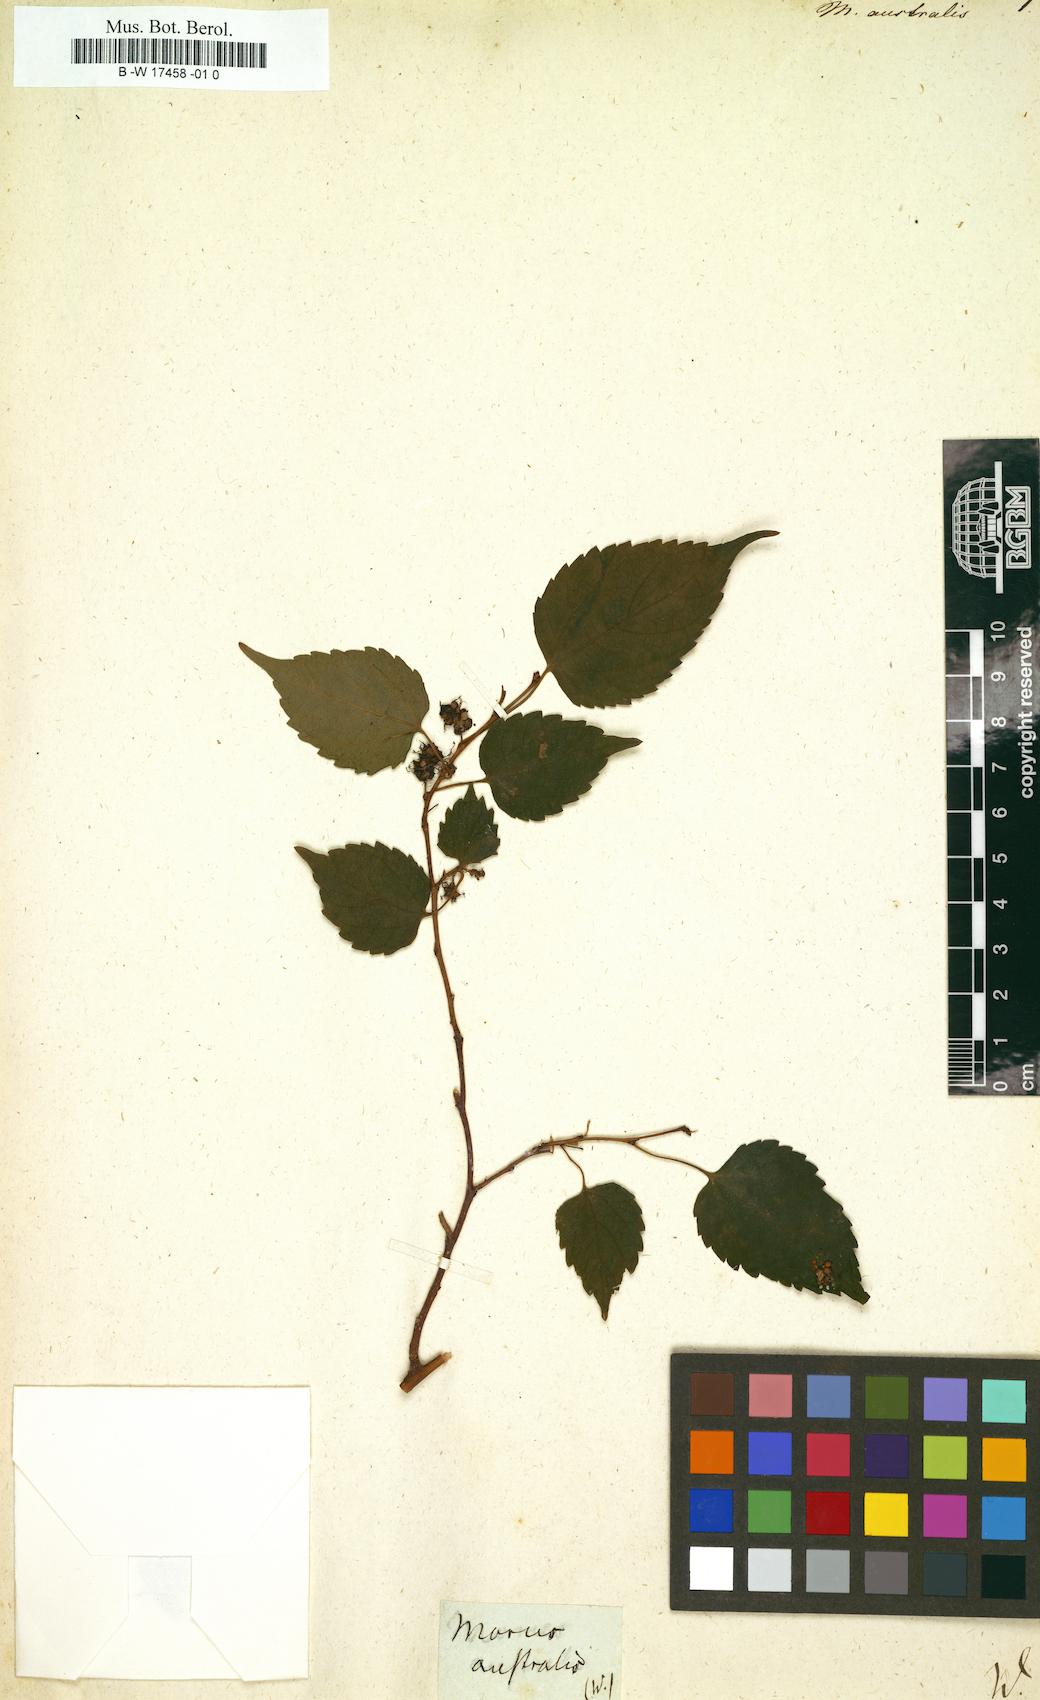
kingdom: Plantae
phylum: Tracheophyta
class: Magnoliopsida
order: Rosales
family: Moraceae
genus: Broussonetia
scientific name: Broussonetia papyrifera
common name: Paper mulberry
